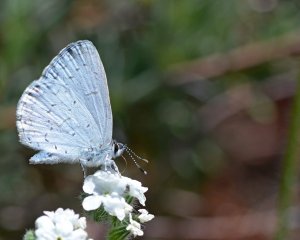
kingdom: Animalia
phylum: Arthropoda
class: Insecta
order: Lepidoptera
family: Lycaenidae
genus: Celastrina
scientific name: Celastrina ladon
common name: Spring Azure
